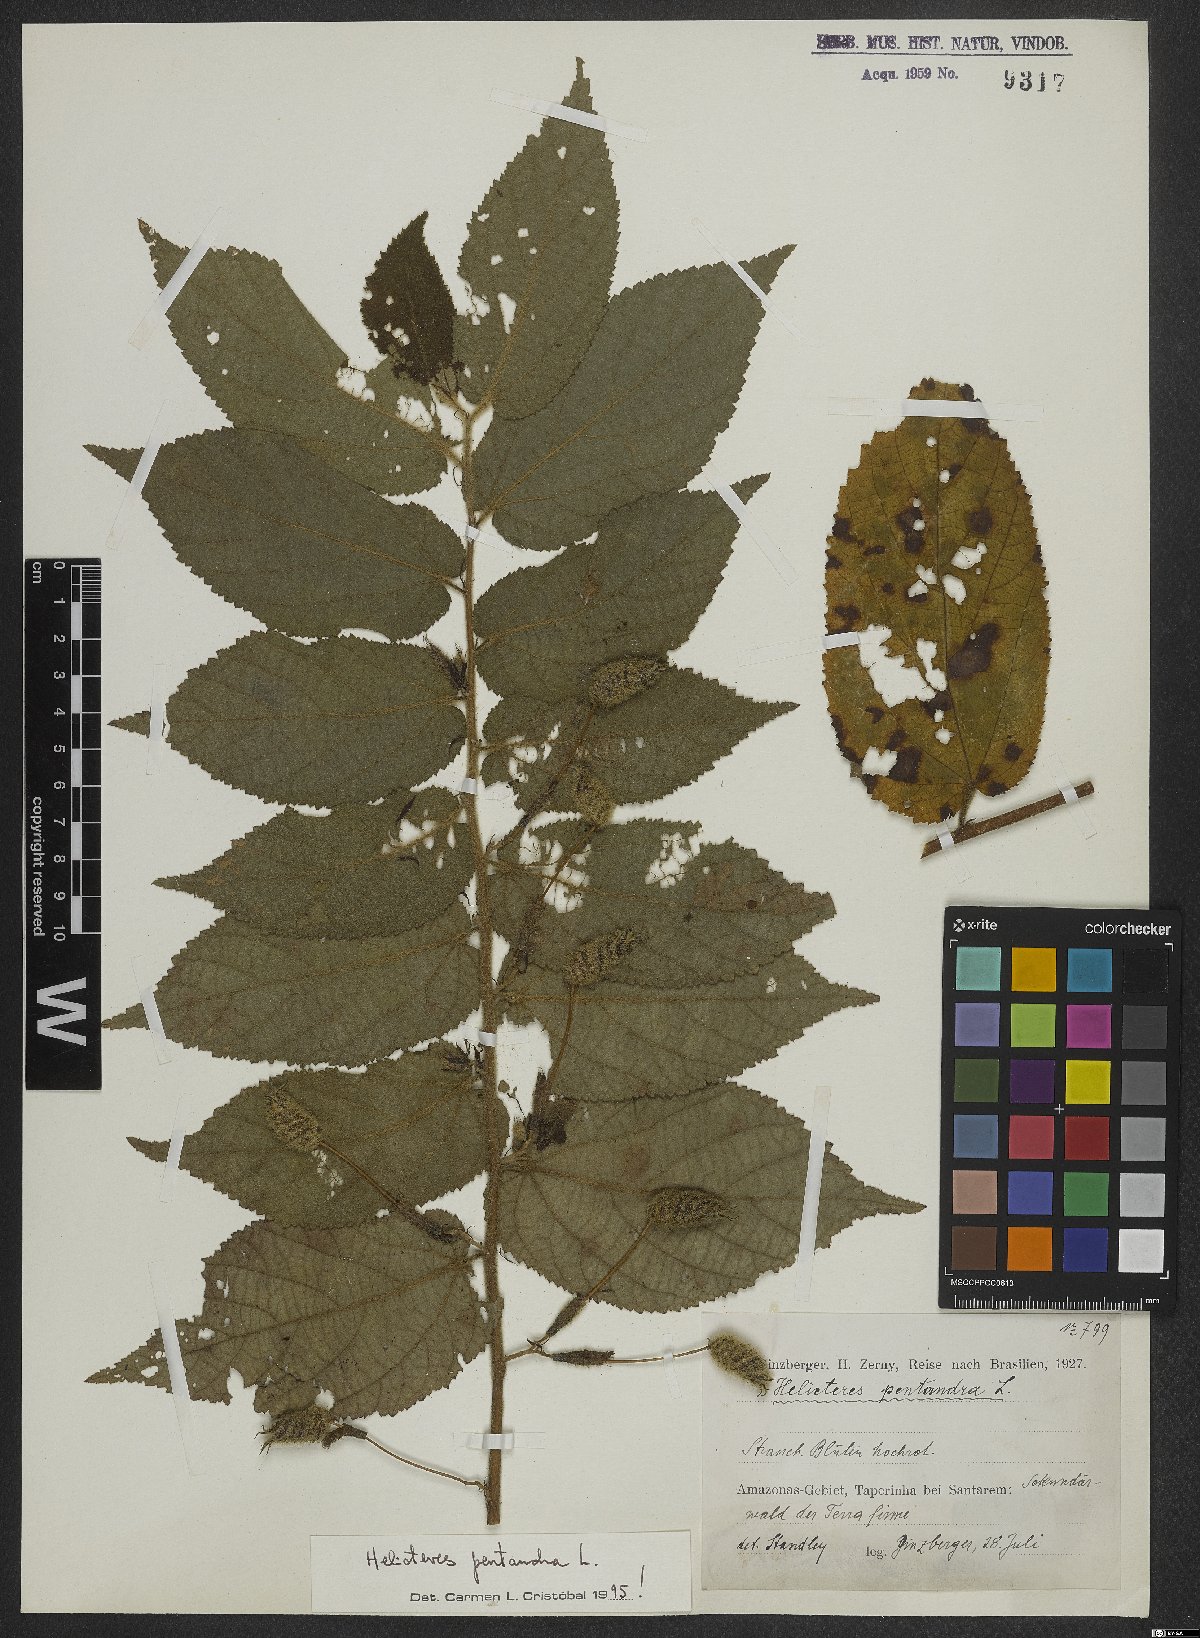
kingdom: Plantae
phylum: Tracheophyta
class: Magnoliopsida
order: Malvales
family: Malvaceae
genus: Helicteres
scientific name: Helicteres pentandra
